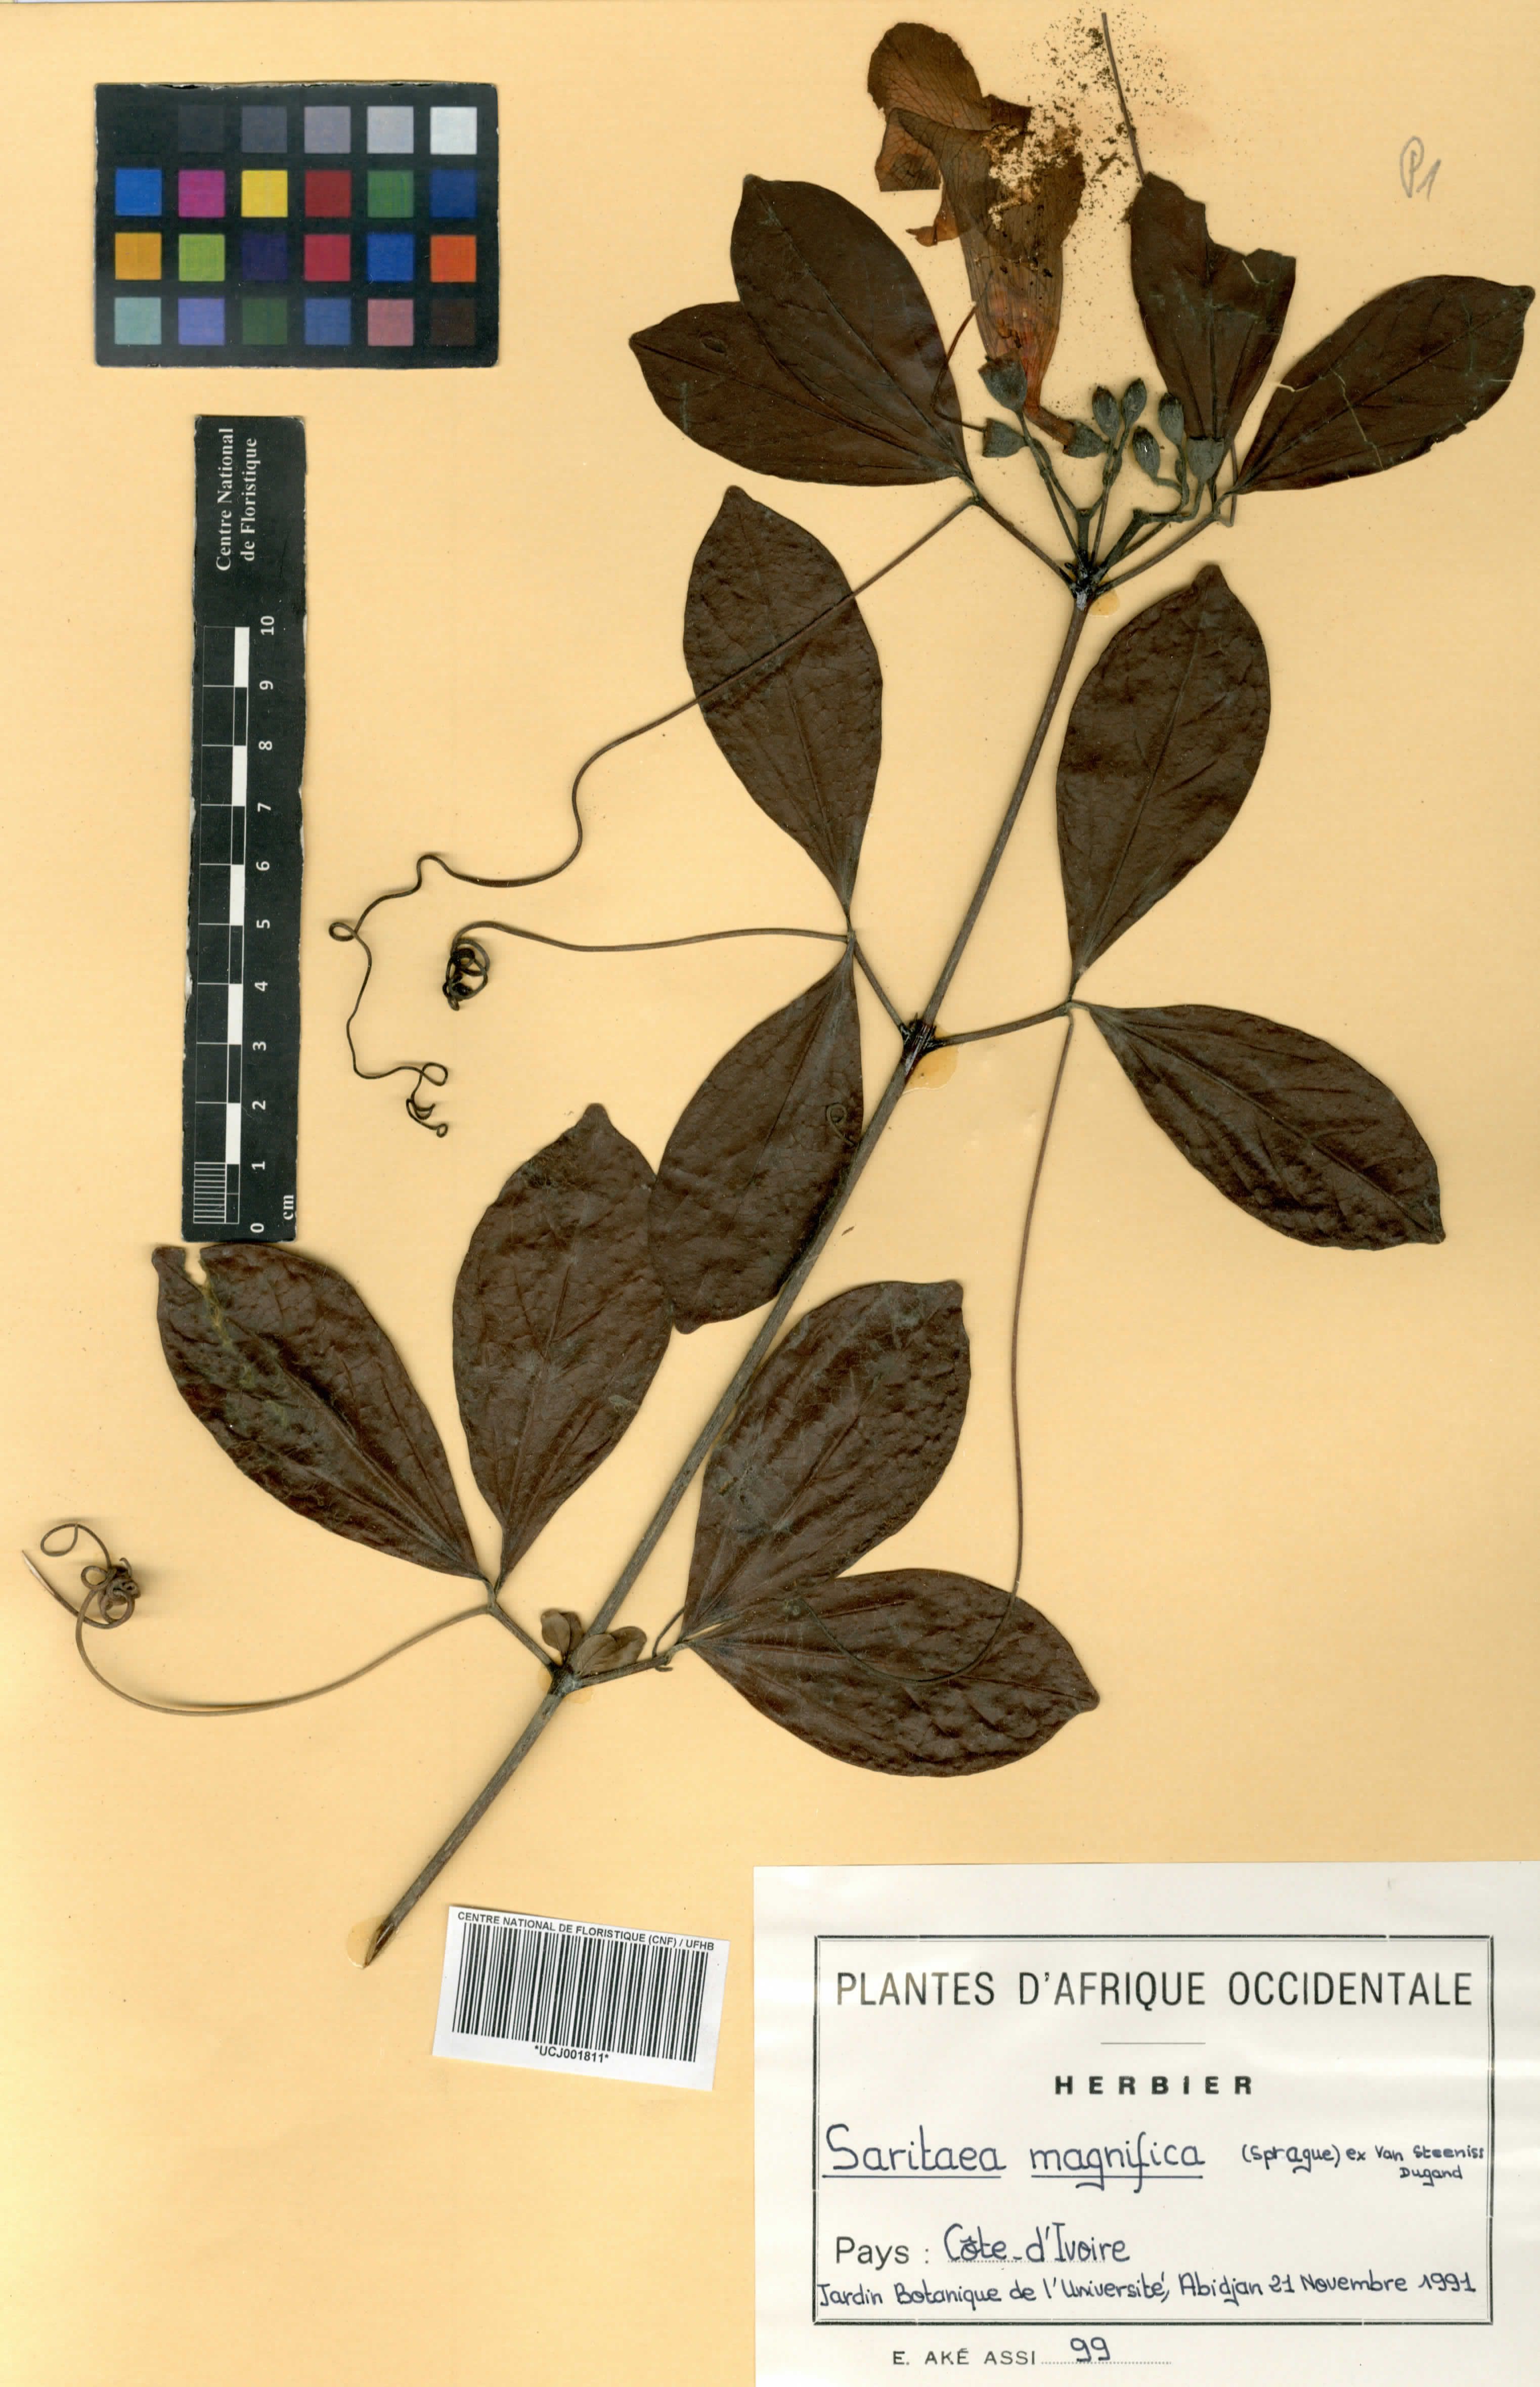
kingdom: Plantae
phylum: Tracheophyta
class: Magnoliopsida
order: Lamiales
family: Bignoniaceae
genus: Bignonia
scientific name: Bignonia magnifica
